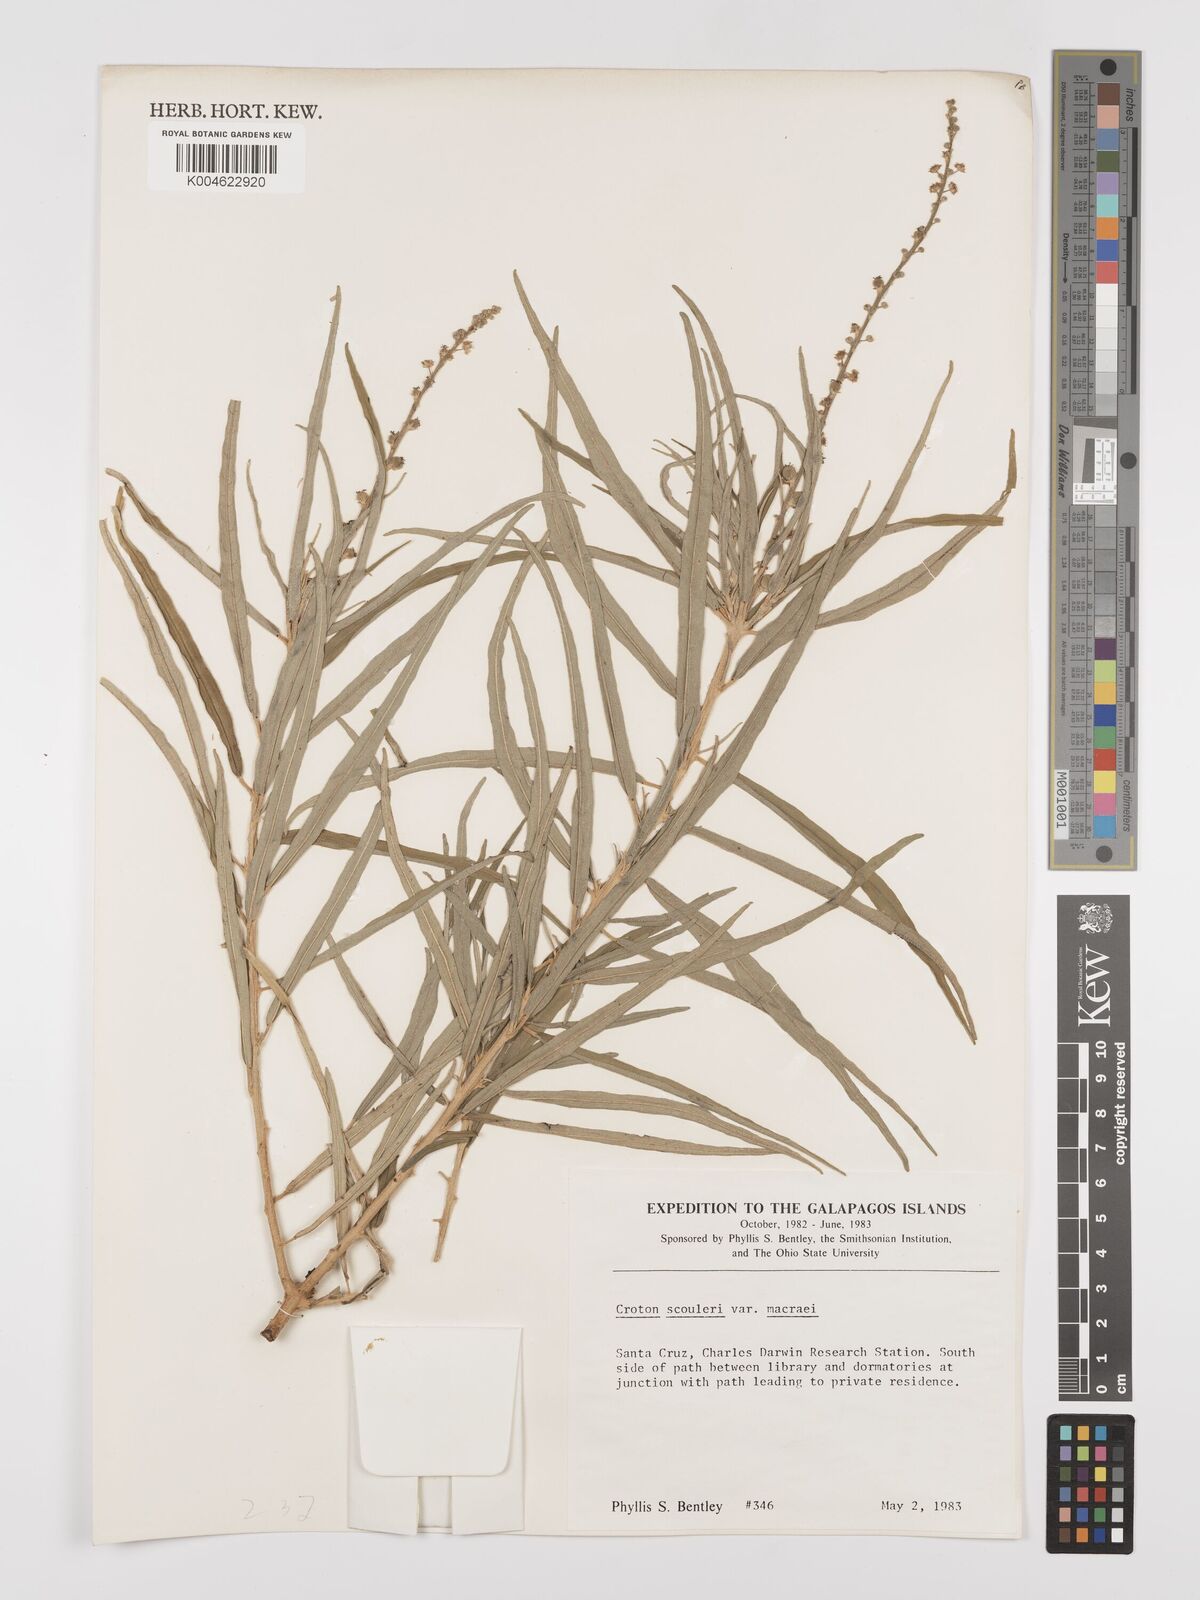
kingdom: Plantae
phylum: Tracheophyta
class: Magnoliopsida
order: Malpighiales
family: Euphorbiaceae
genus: Croton
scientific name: Croton scouleri
